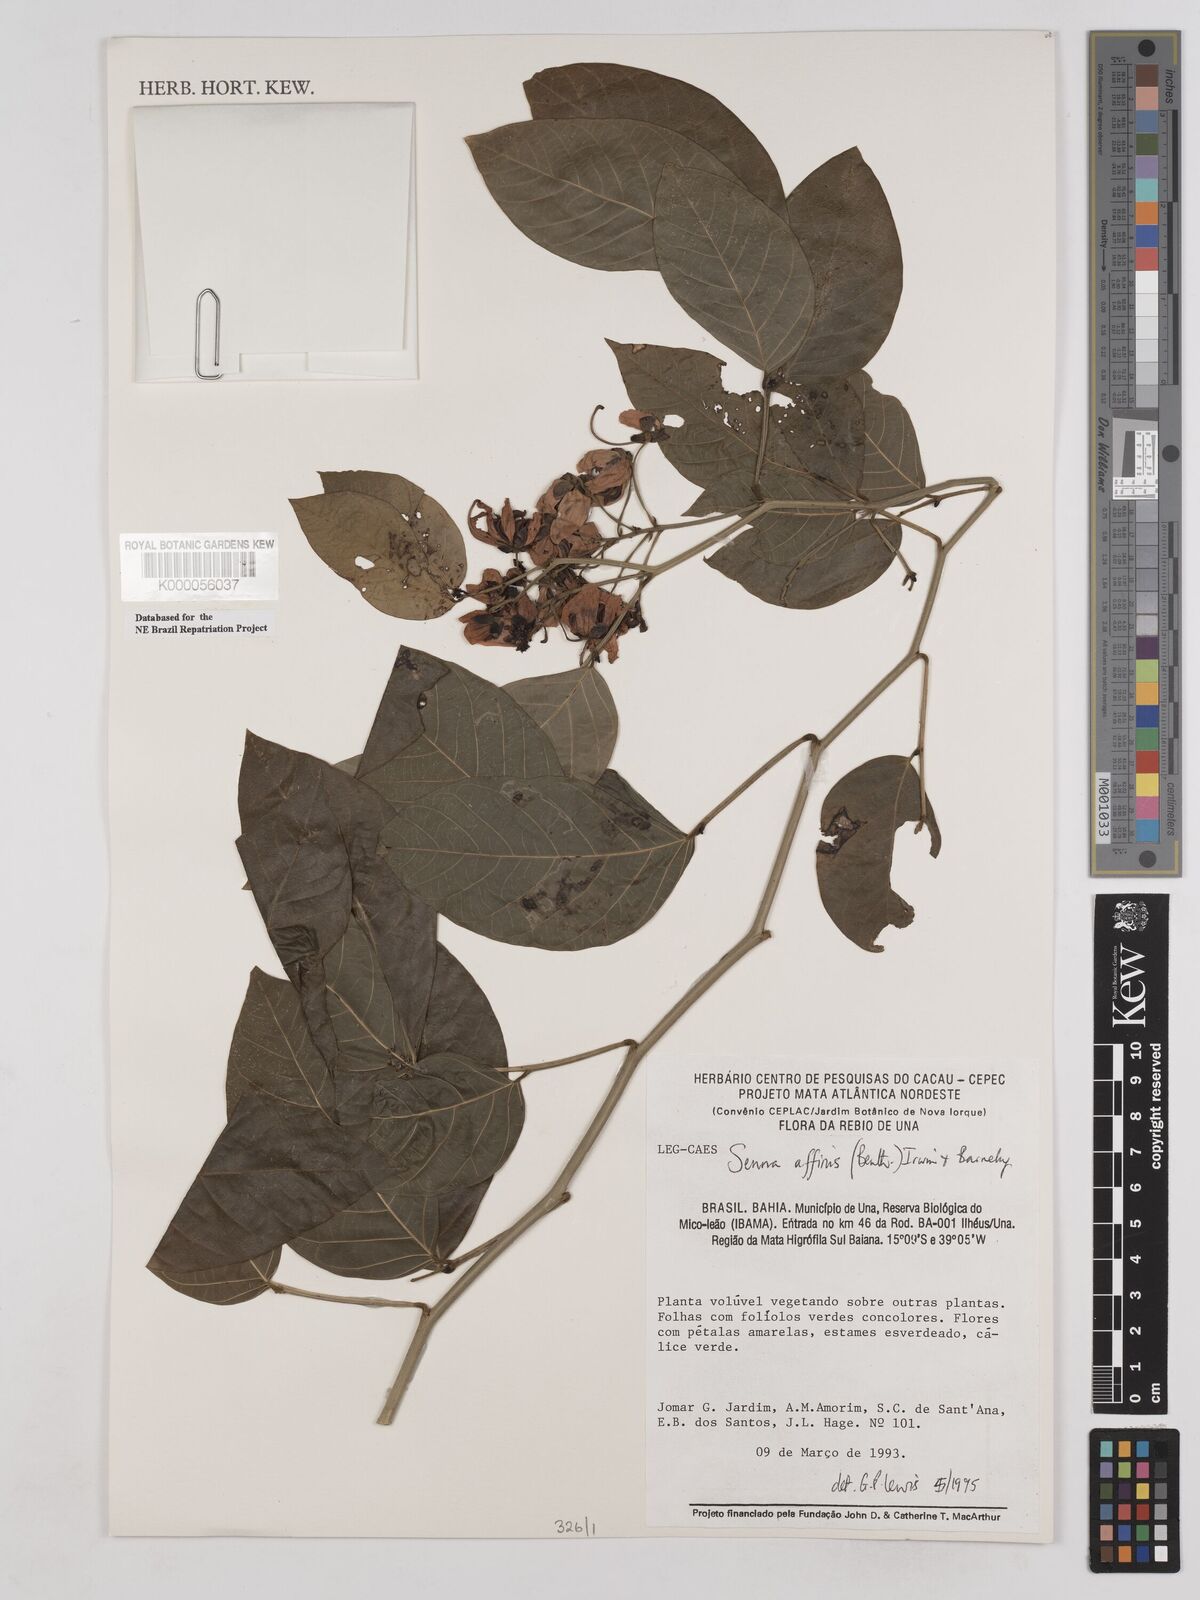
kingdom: Plantae
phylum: Tracheophyta
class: Magnoliopsida
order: Fabales
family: Fabaceae
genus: Senna
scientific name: Senna affinis
